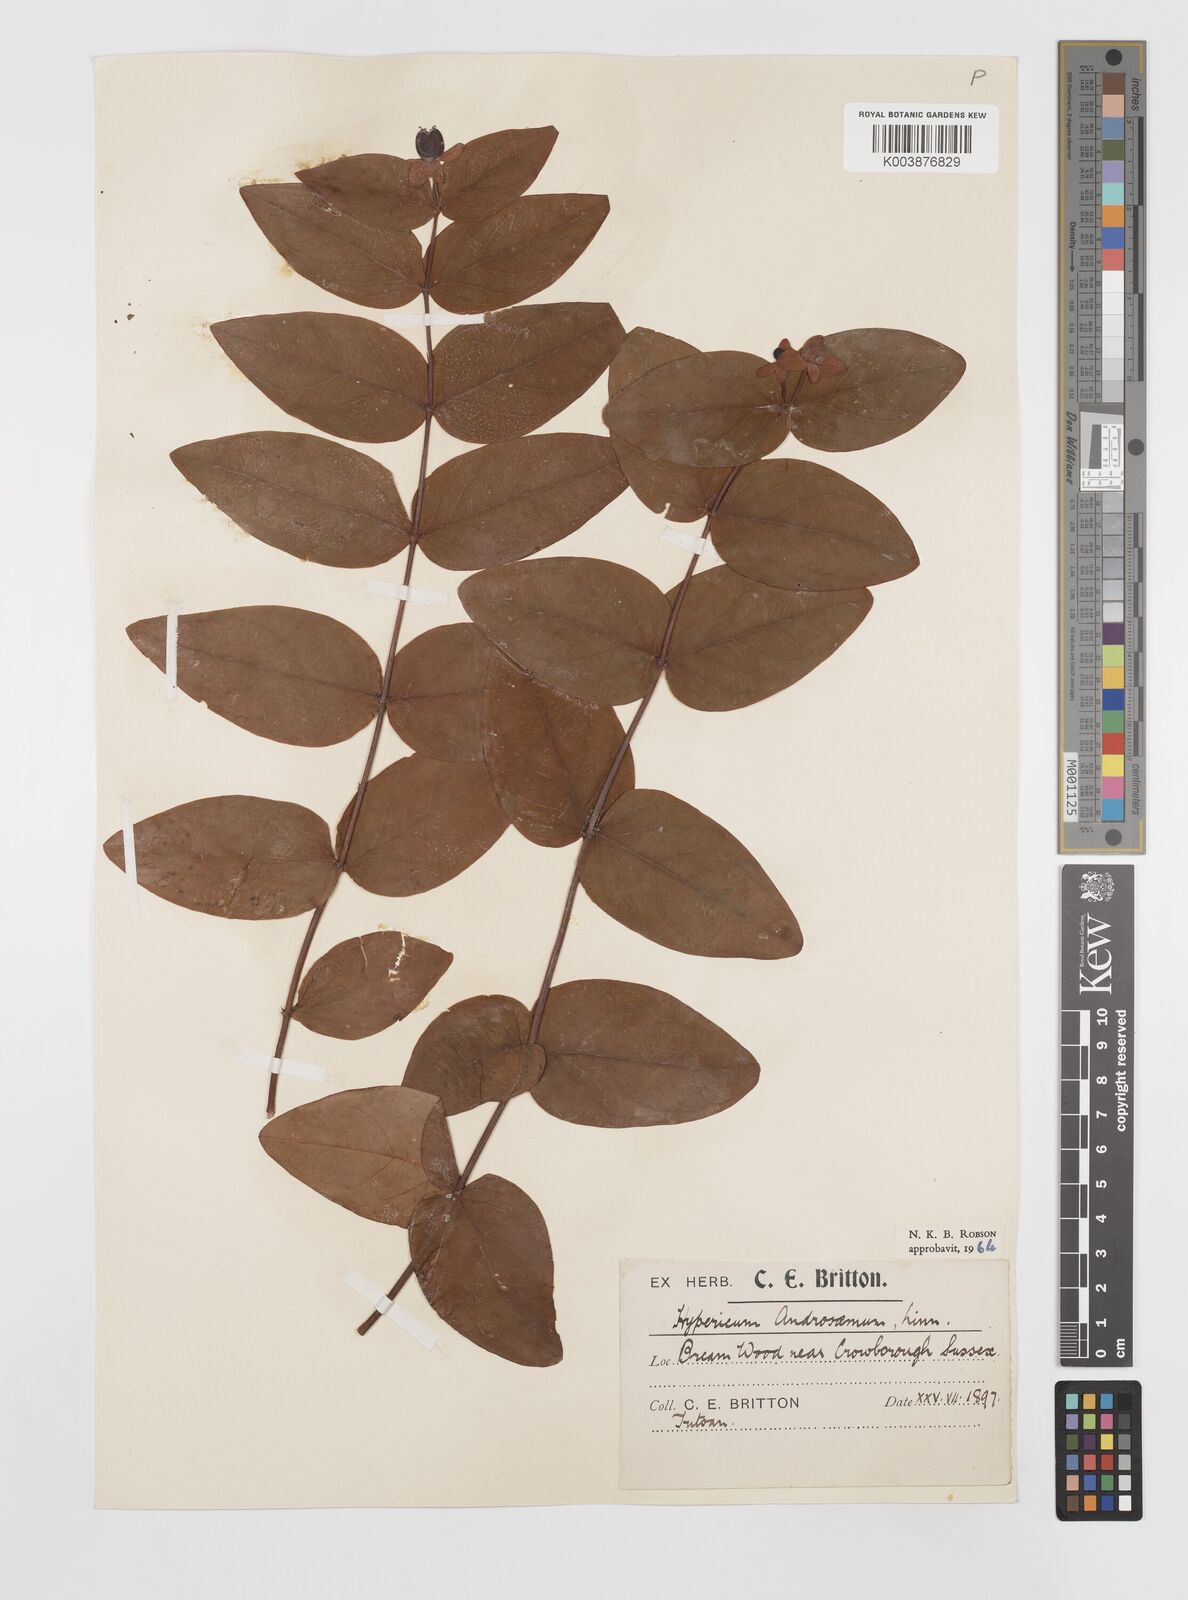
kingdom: Plantae
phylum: Tracheophyta
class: Magnoliopsida
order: Malpighiales
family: Hypericaceae
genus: Hypericum
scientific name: Hypericum androsaemum
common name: Sweet-amber
